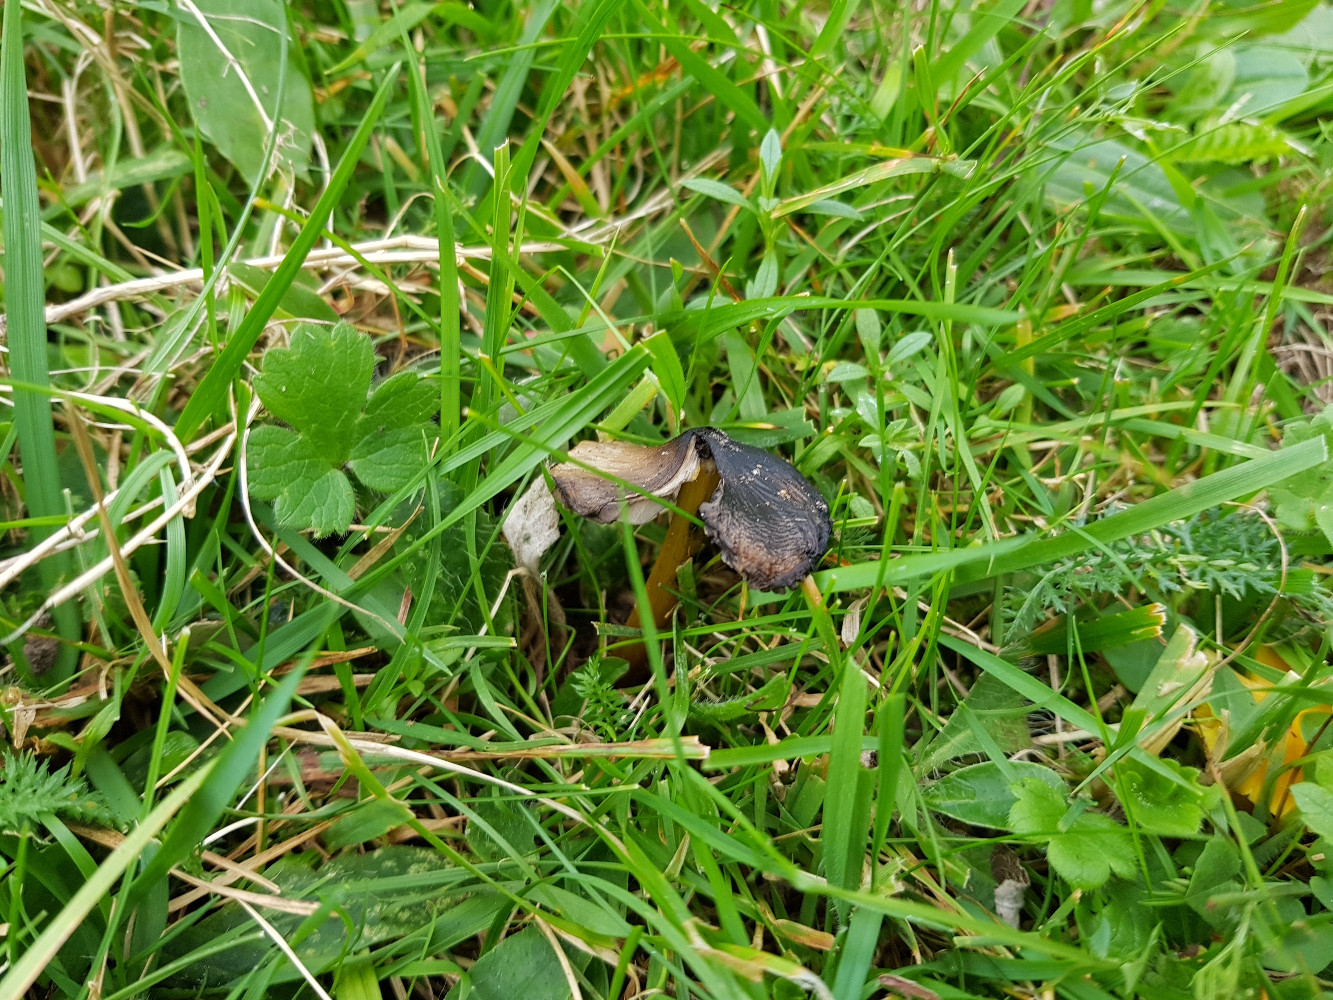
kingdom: Fungi
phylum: Basidiomycota
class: Agaricomycetes
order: Agaricales
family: Hygrophoraceae
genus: Hygrocybe
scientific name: Hygrocybe conica
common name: kegle-vokshat
